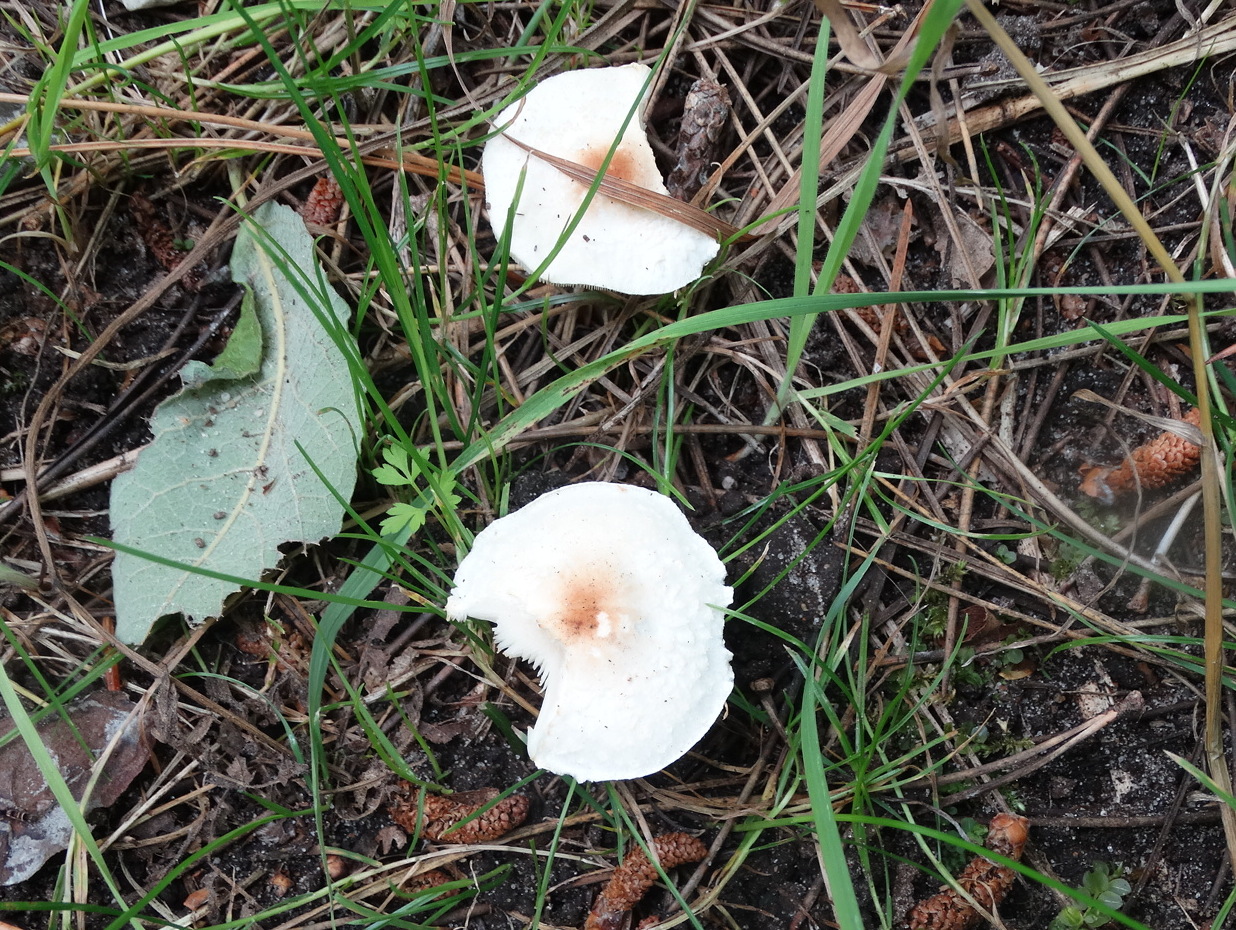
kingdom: Fungi
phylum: Basidiomycota
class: Agaricomycetes
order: Agaricales
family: Agaricaceae
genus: Lepiota
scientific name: Lepiota cristata
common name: stinkende parasolhat
